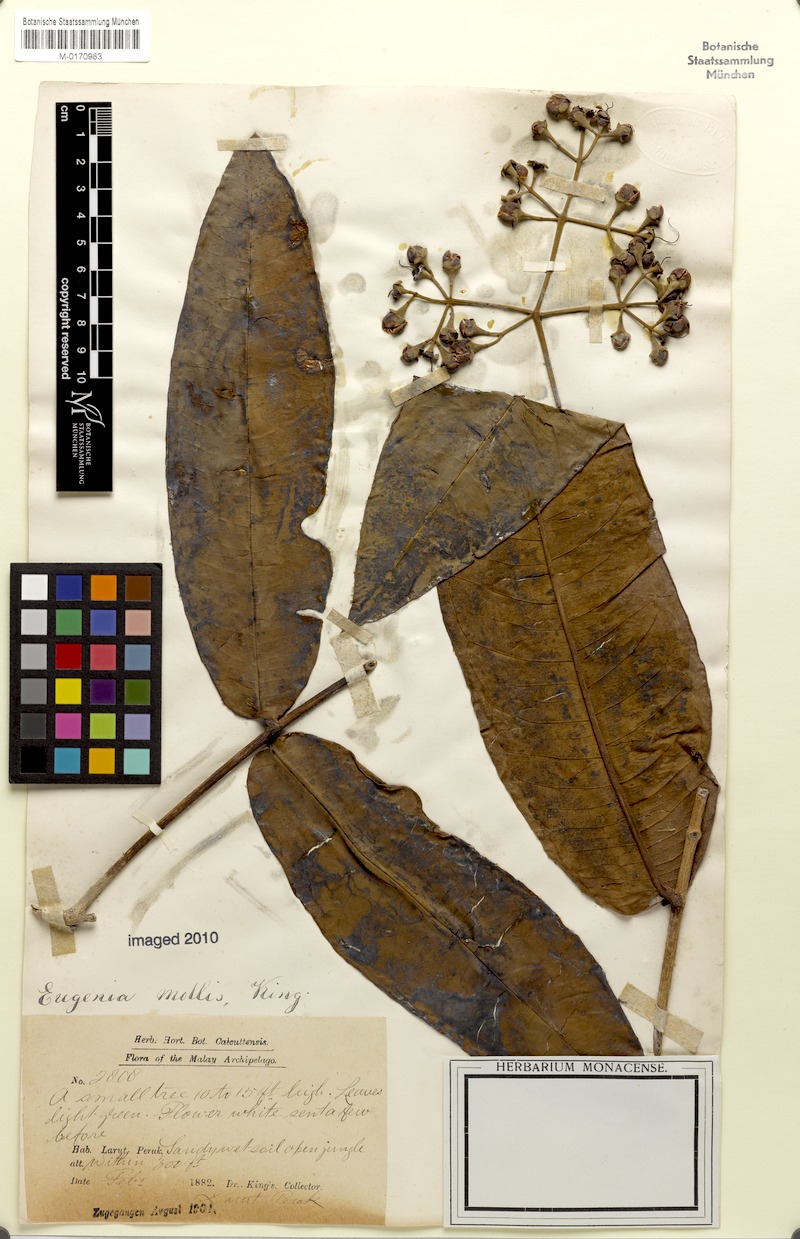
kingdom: Plantae
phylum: Tracheophyta
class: Magnoliopsida
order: Myrtales
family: Myrtaceae
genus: Syzygium
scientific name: Syzygium pseudomolle
